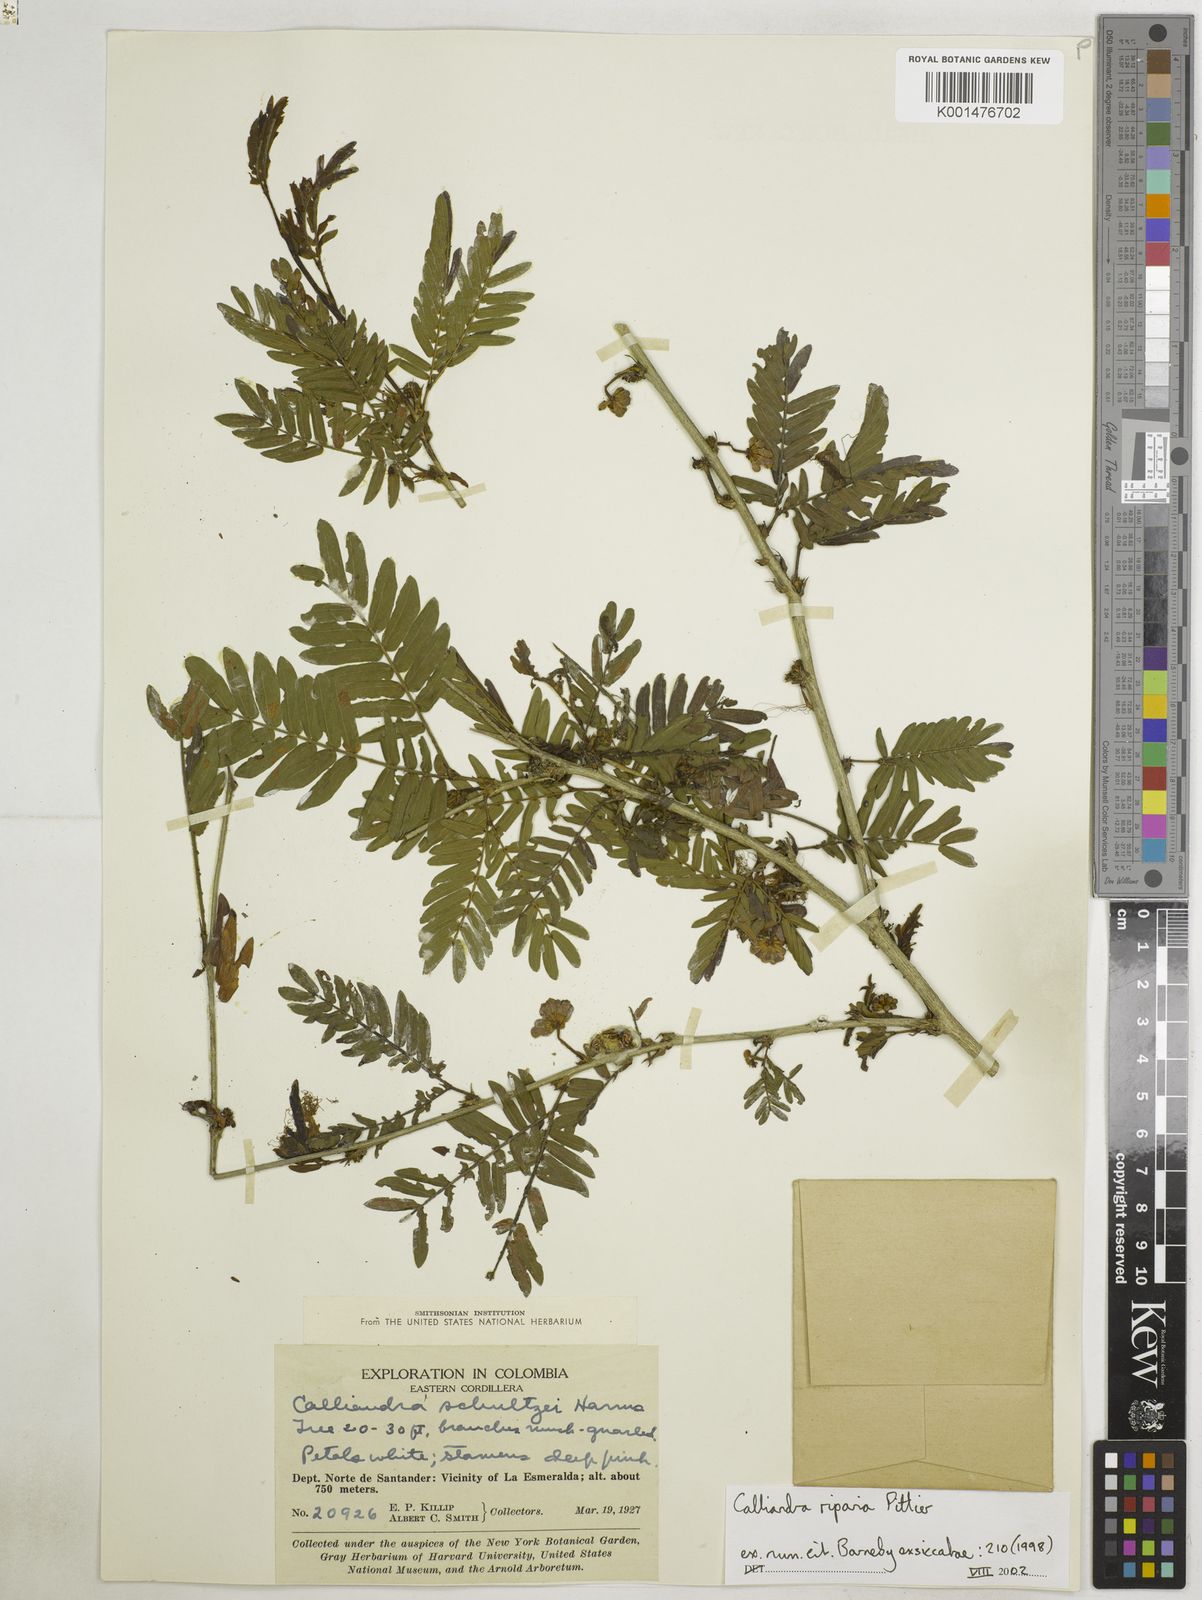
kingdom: Plantae
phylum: Tracheophyta
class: Magnoliopsida
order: Fabales
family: Fabaceae
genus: Calliandra
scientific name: Calliandra riparia
